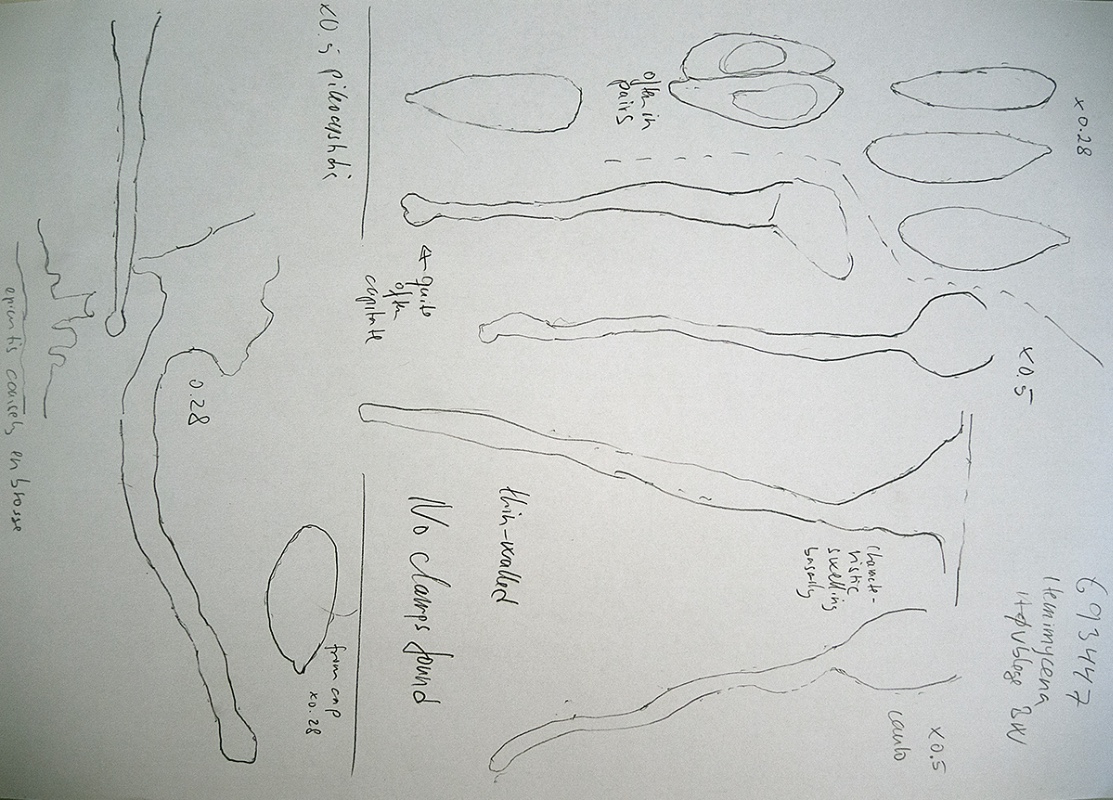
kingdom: Fungi
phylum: Basidiomycota
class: Agaricomycetes
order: Agaricales
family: Mycenaceae
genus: Hemimycena
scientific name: Hemimycena mauretanica
